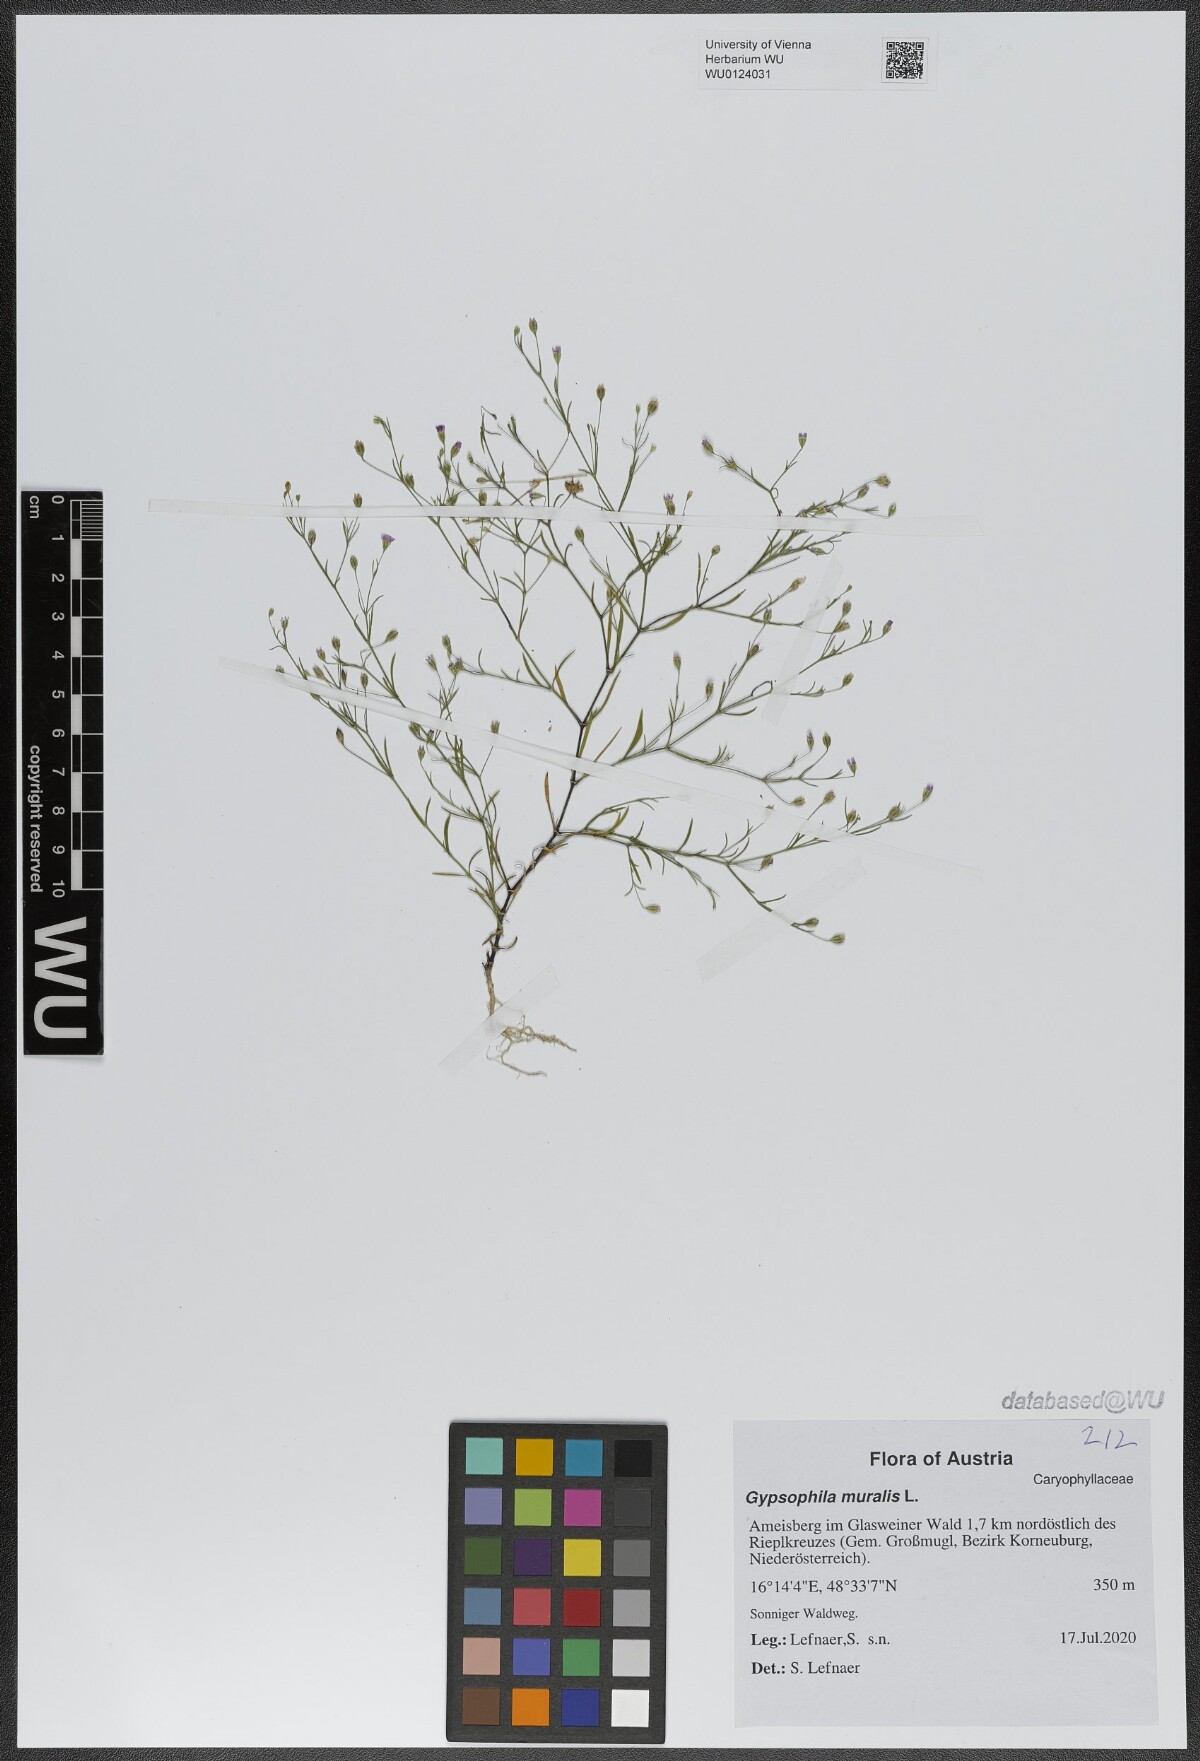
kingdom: Plantae
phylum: Tracheophyta
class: Magnoliopsida
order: Caryophyllales
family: Caryophyllaceae
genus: Psammophiliella
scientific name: Psammophiliella muralis
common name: Cushion baby's-breath
